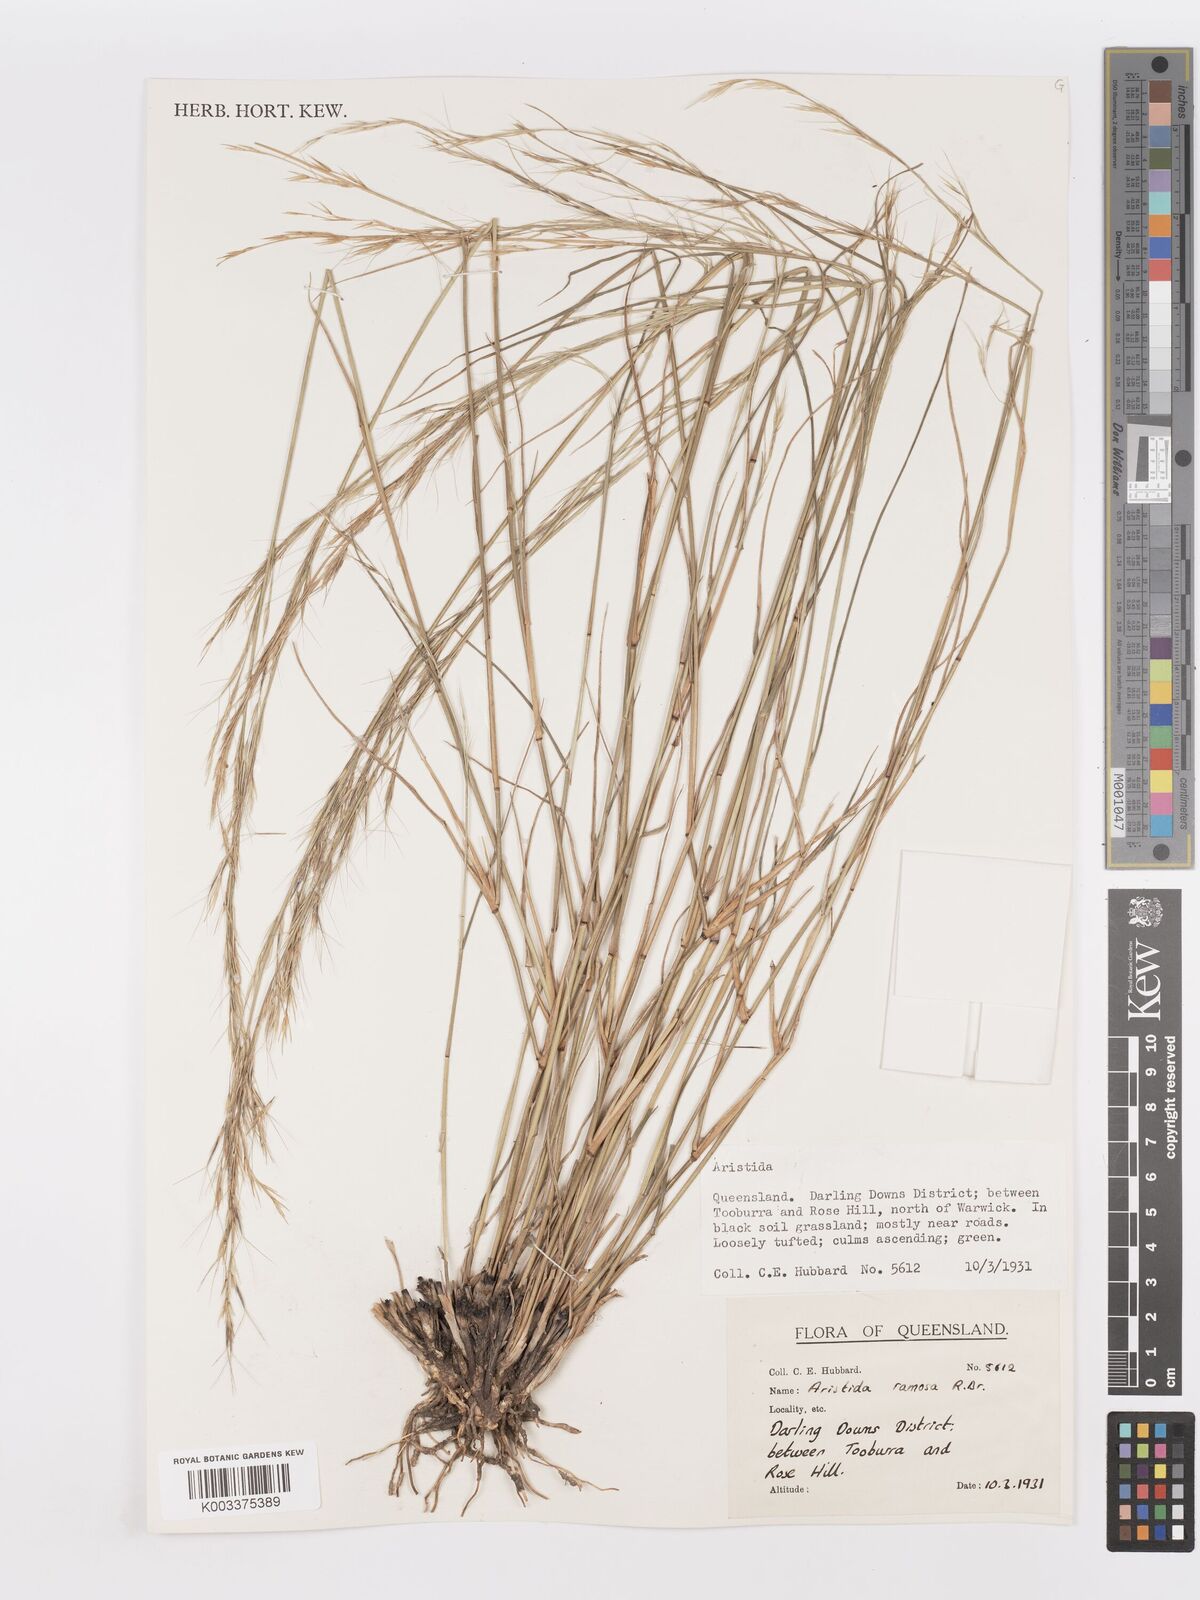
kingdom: Plantae
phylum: Tracheophyta
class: Liliopsida
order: Poales
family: Poaceae
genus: Aristida
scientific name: Aristida ramosa
